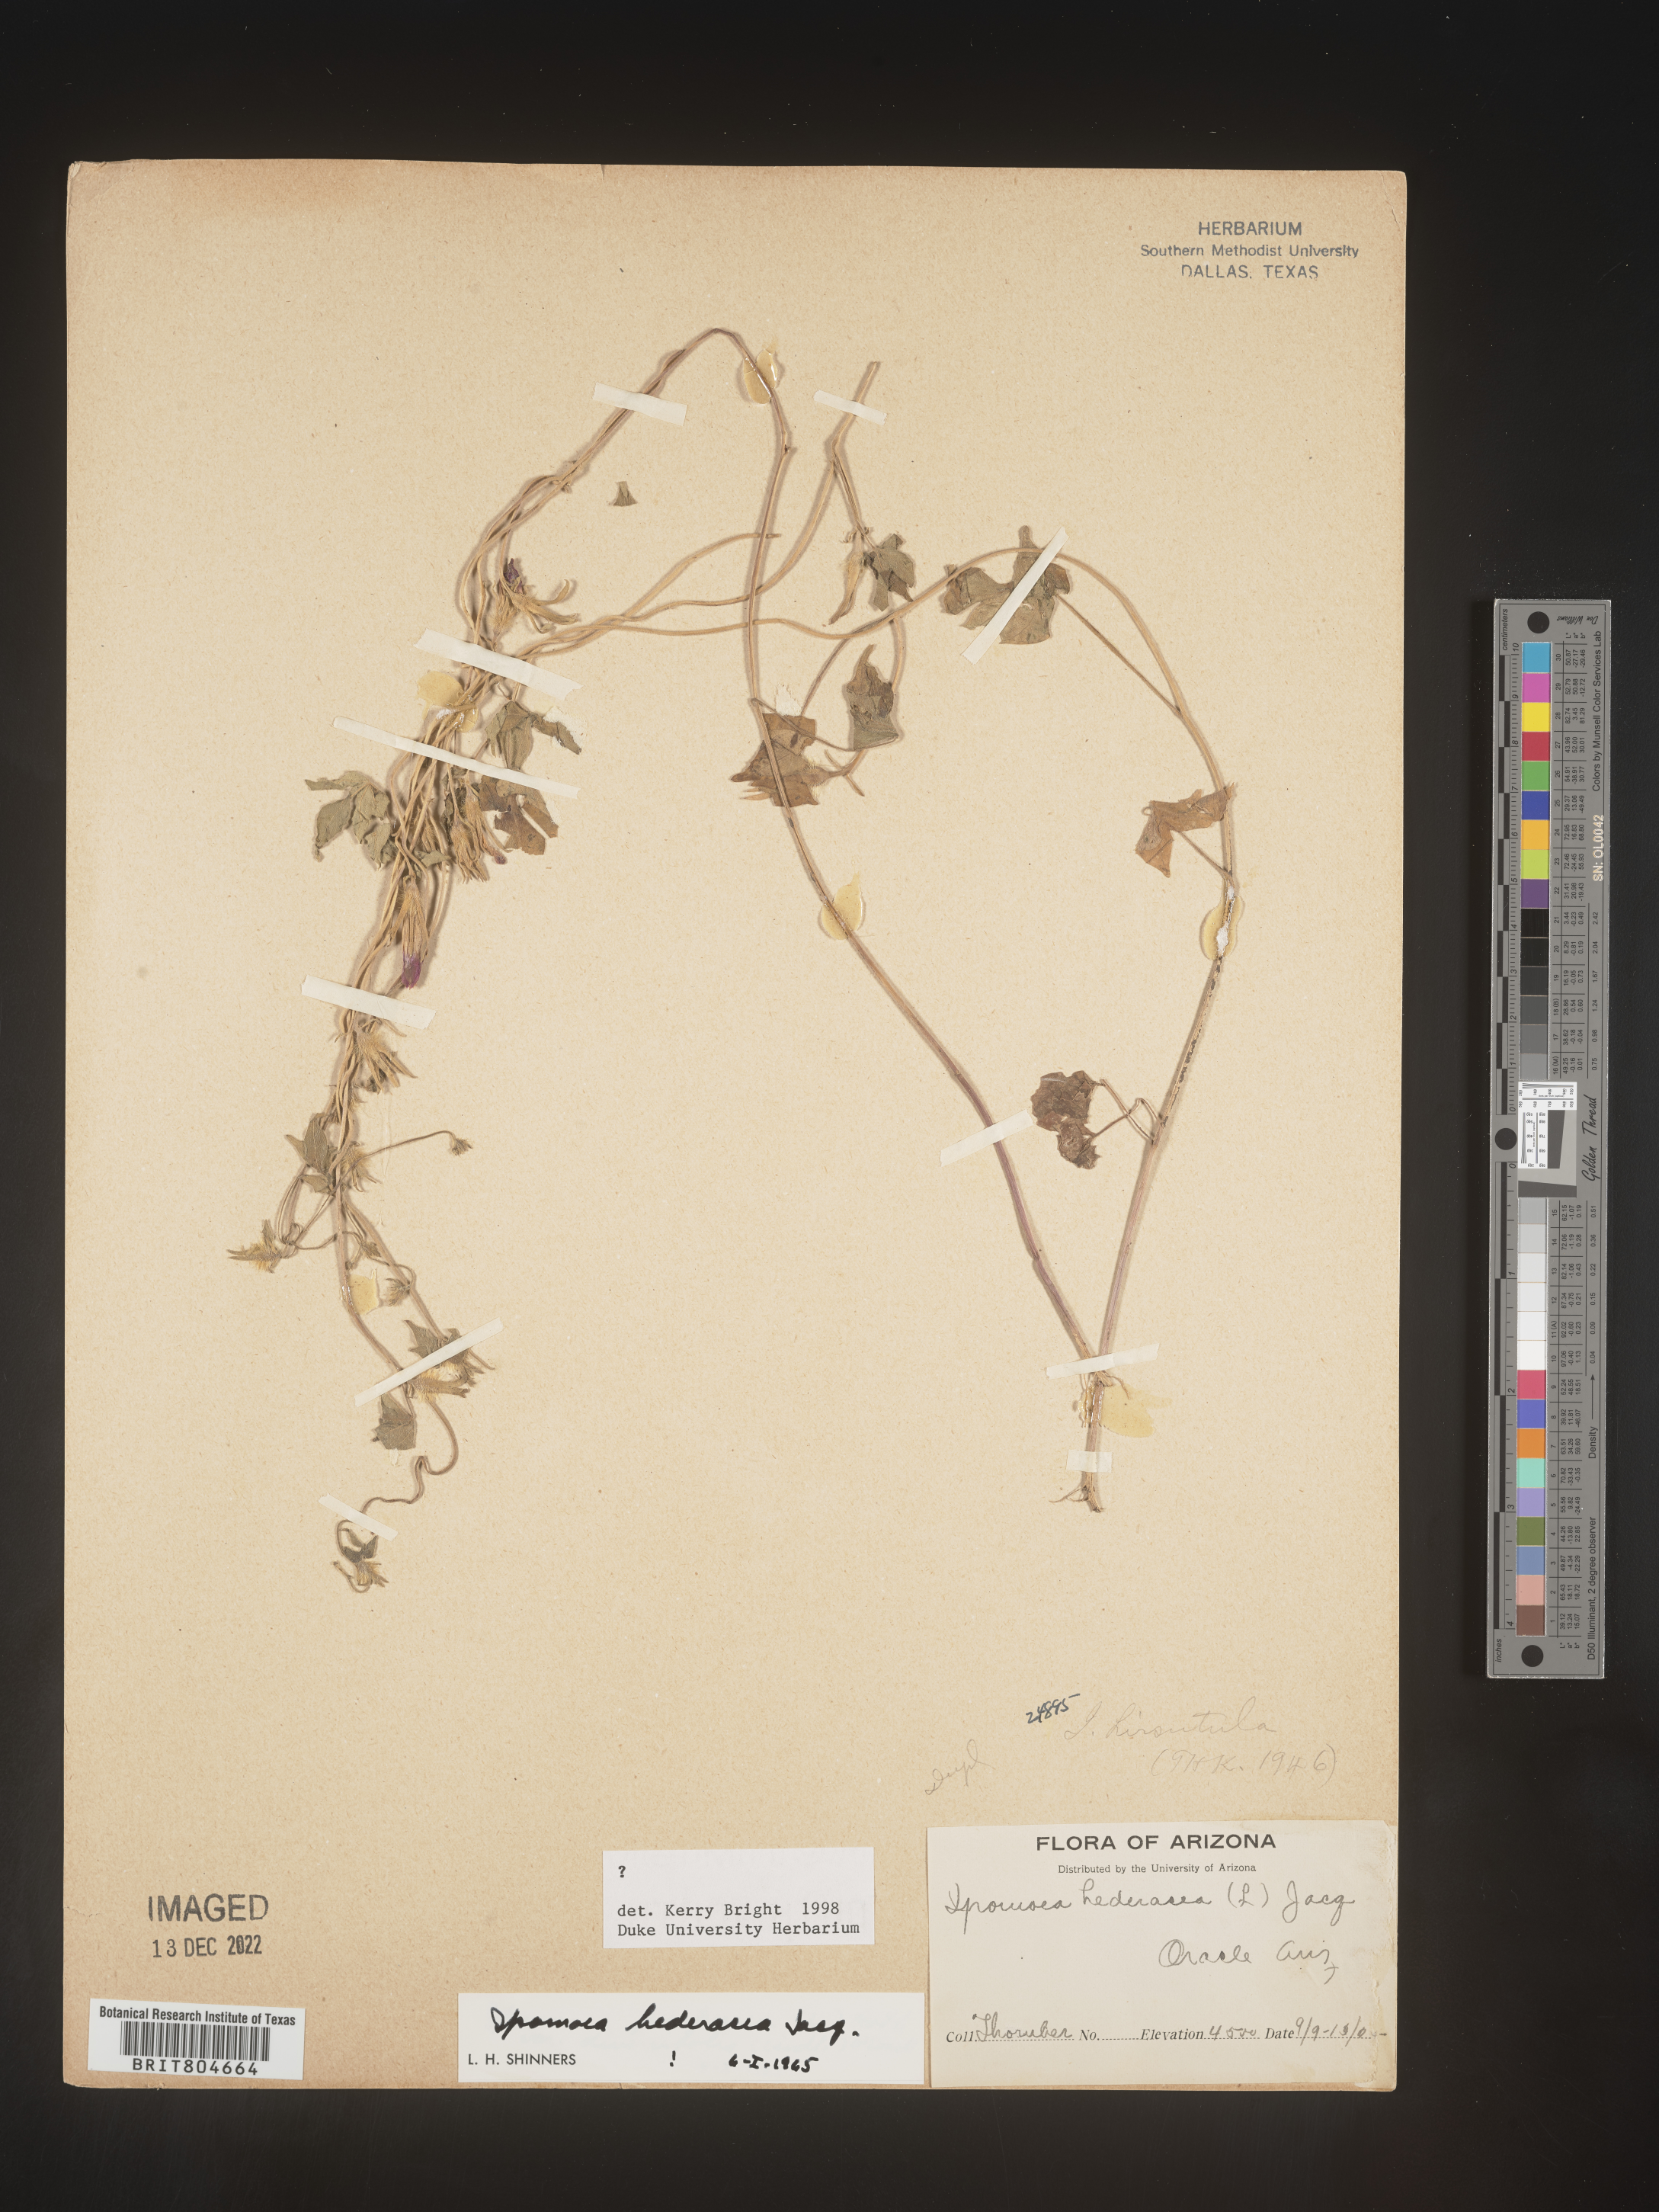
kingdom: Plantae
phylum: Tracheophyta
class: Magnoliopsida
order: Solanales
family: Convolvulaceae
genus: Ipomoea
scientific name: Ipomoea hederacea
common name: Ivy-leaved morning-glory
